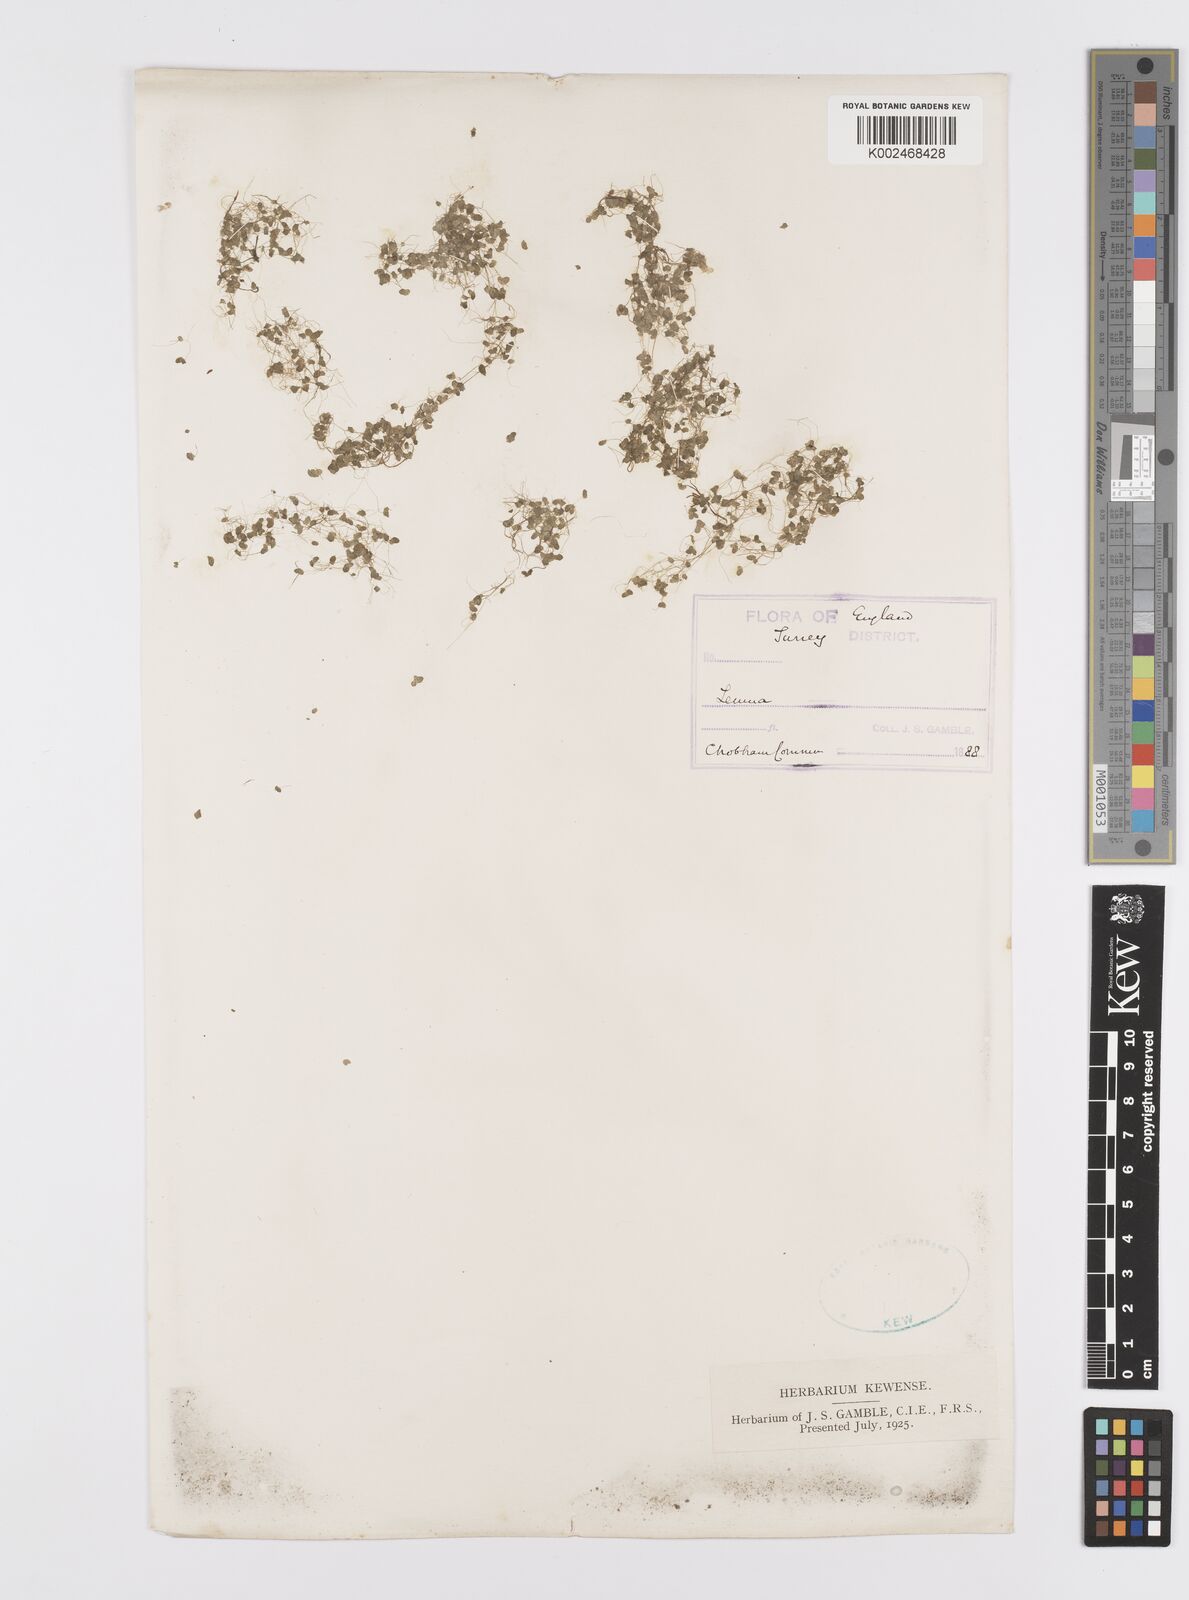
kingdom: Plantae
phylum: Tracheophyta
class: Liliopsida
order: Alismatales
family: Araceae
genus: Wolffia
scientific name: Wolffia
